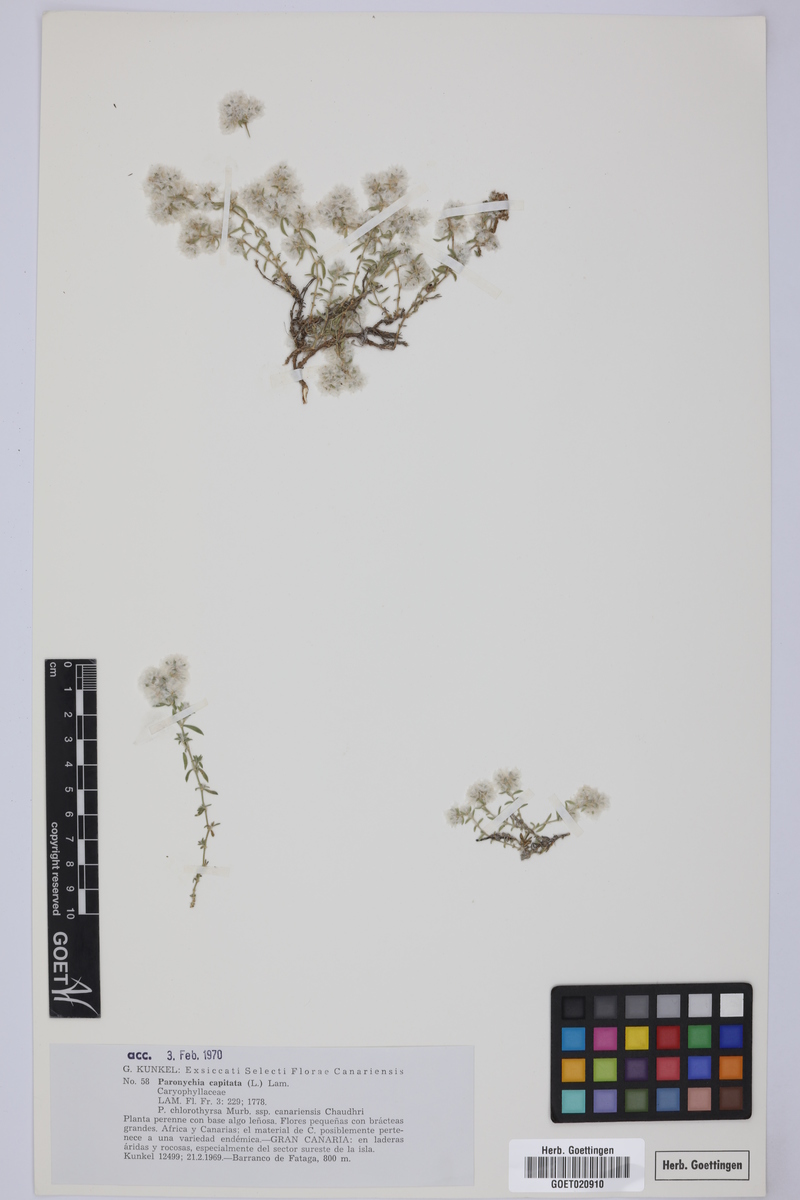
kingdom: Plantae
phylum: Tracheophyta
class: Magnoliopsida
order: Caryophyllales
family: Caryophyllaceae
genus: Paronychia
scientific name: Paronychia capitata
